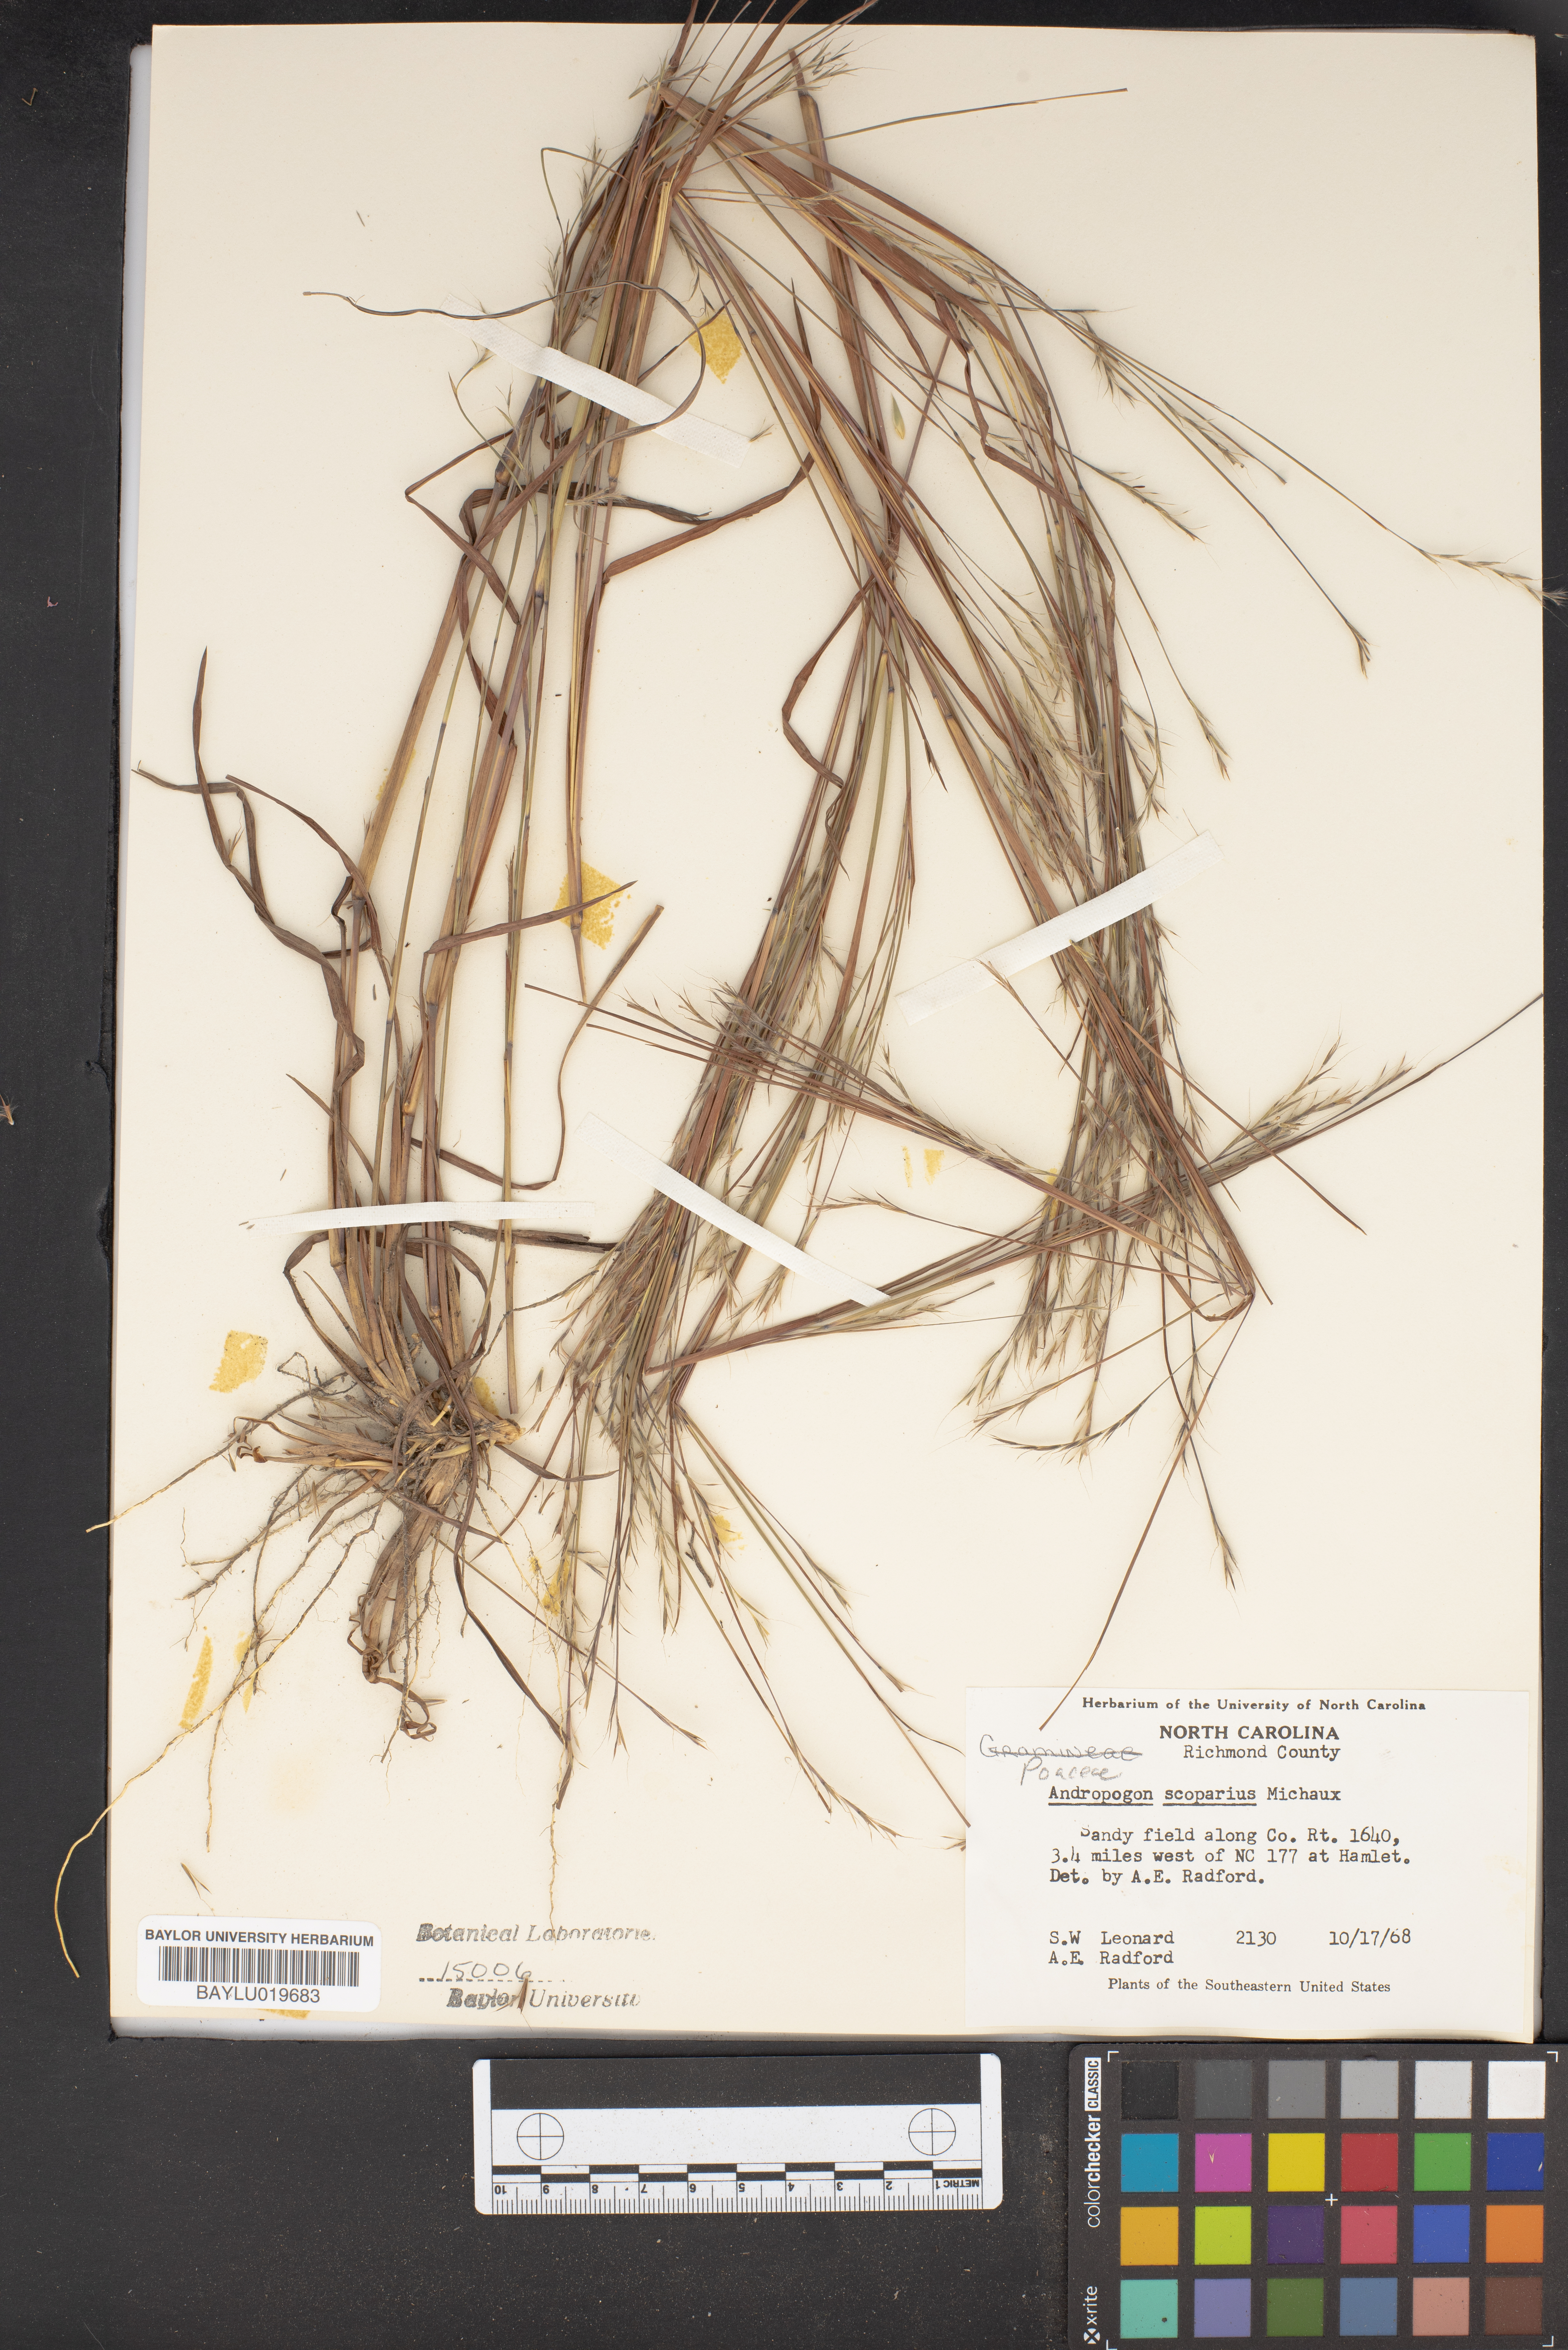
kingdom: Plantae
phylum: Tracheophyta
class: Liliopsida
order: Poales
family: Poaceae
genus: Schizachyrium
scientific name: Schizachyrium scoparium
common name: Little bluestem
